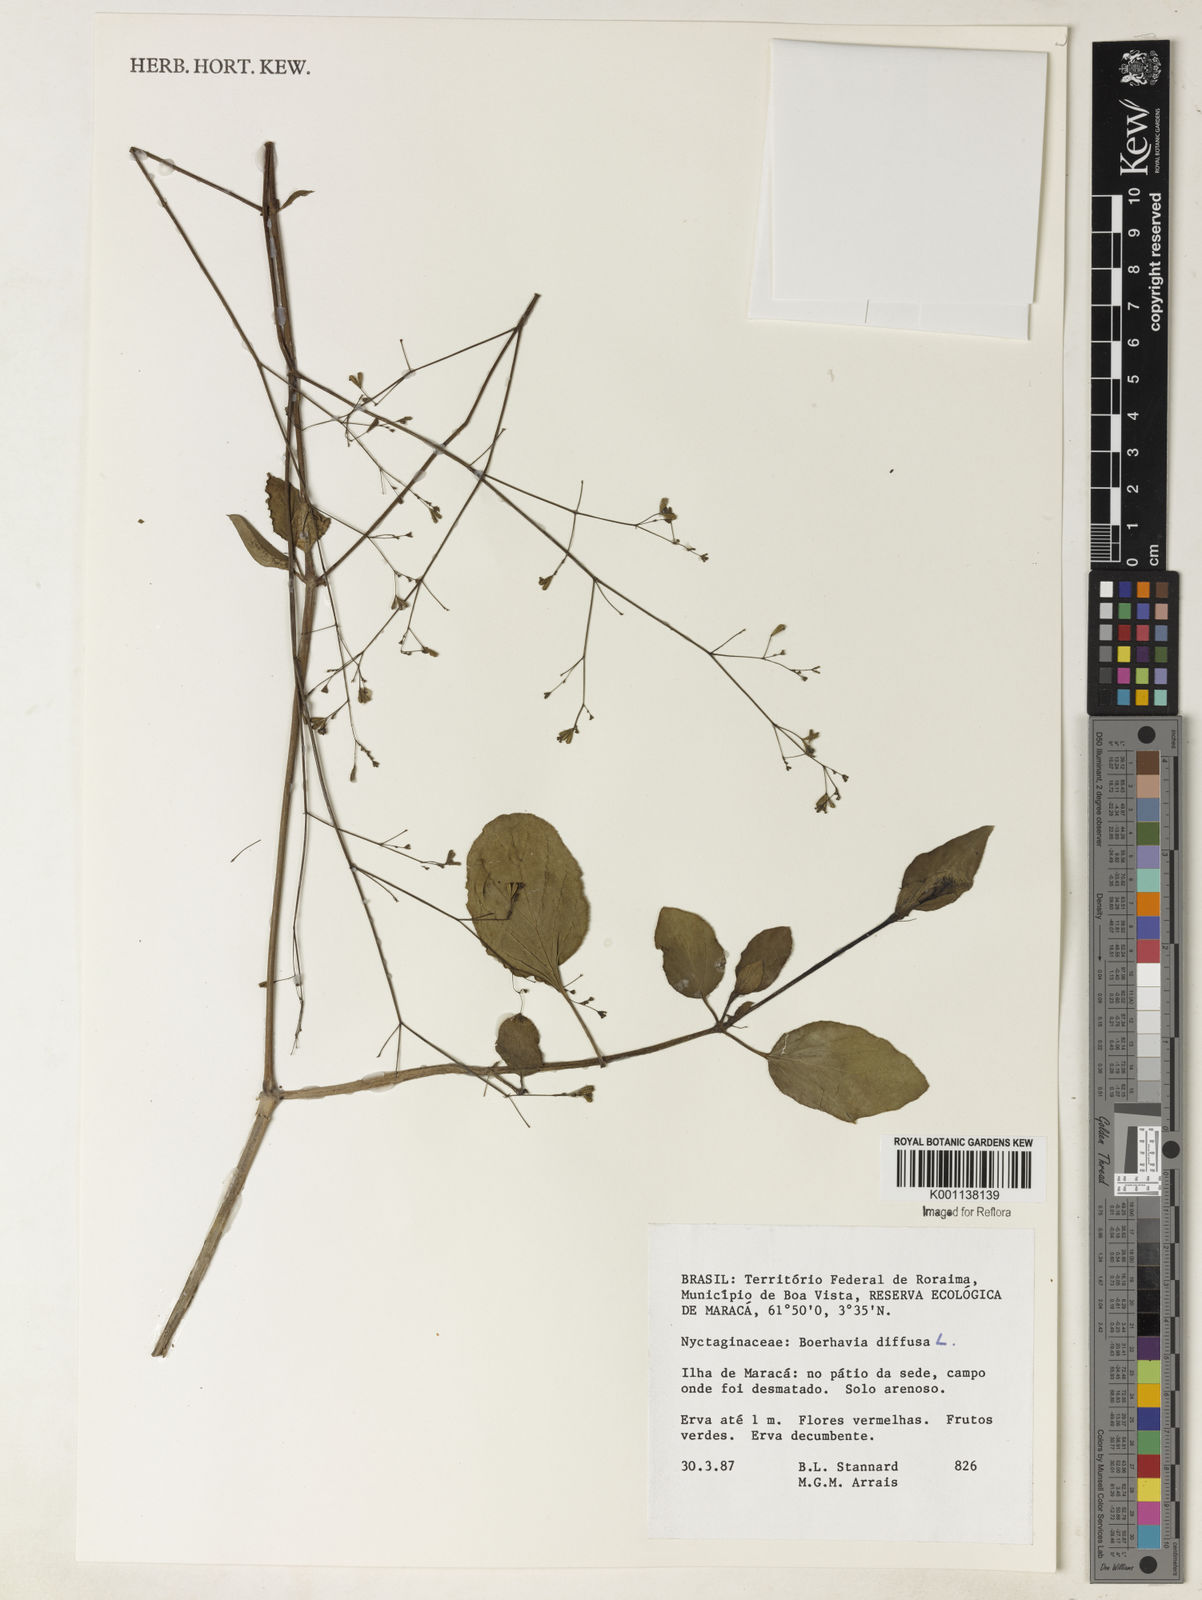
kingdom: Plantae
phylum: Tracheophyta
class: Magnoliopsida
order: Caryophyllales
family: Nyctaginaceae
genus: Boerhavia
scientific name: Boerhavia diffusa
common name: Red spiderling
